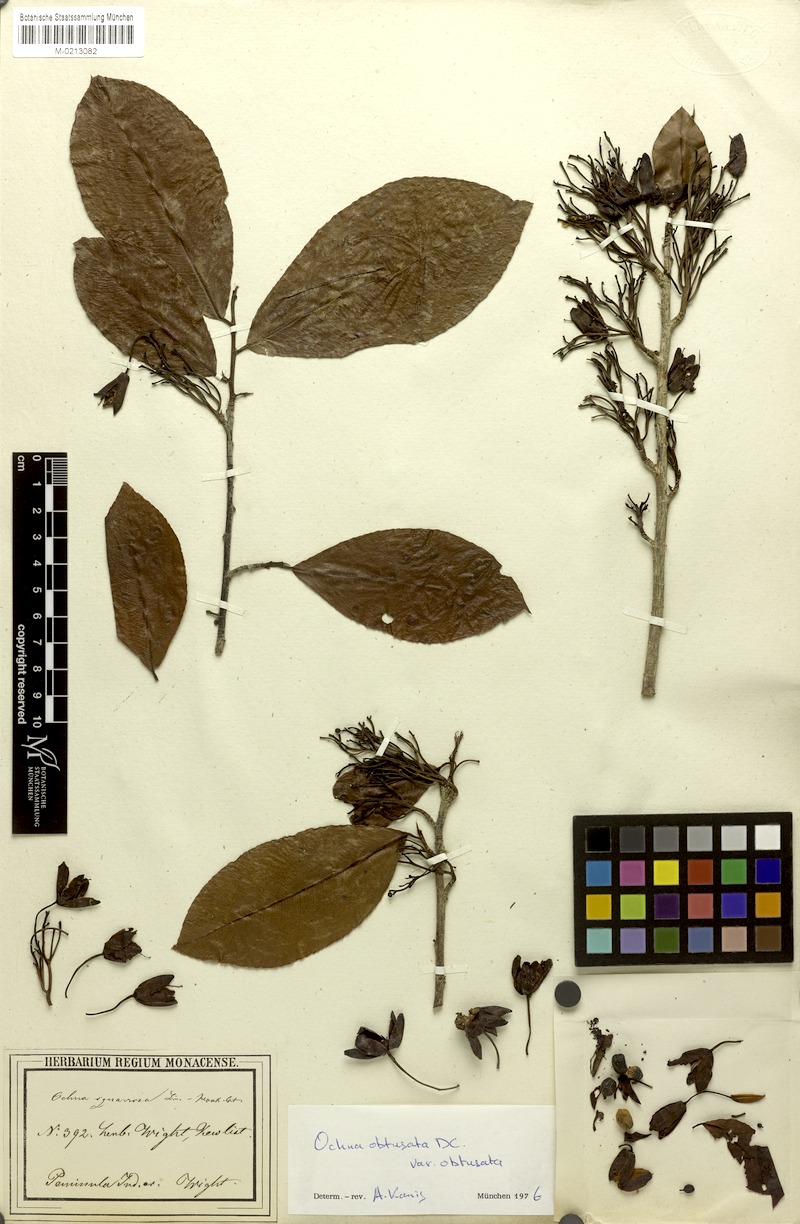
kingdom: Plantae
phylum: Tracheophyta
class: Magnoliopsida
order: Malpighiales
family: Ochnaceae
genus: Ochna
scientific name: Ochna obtusata
